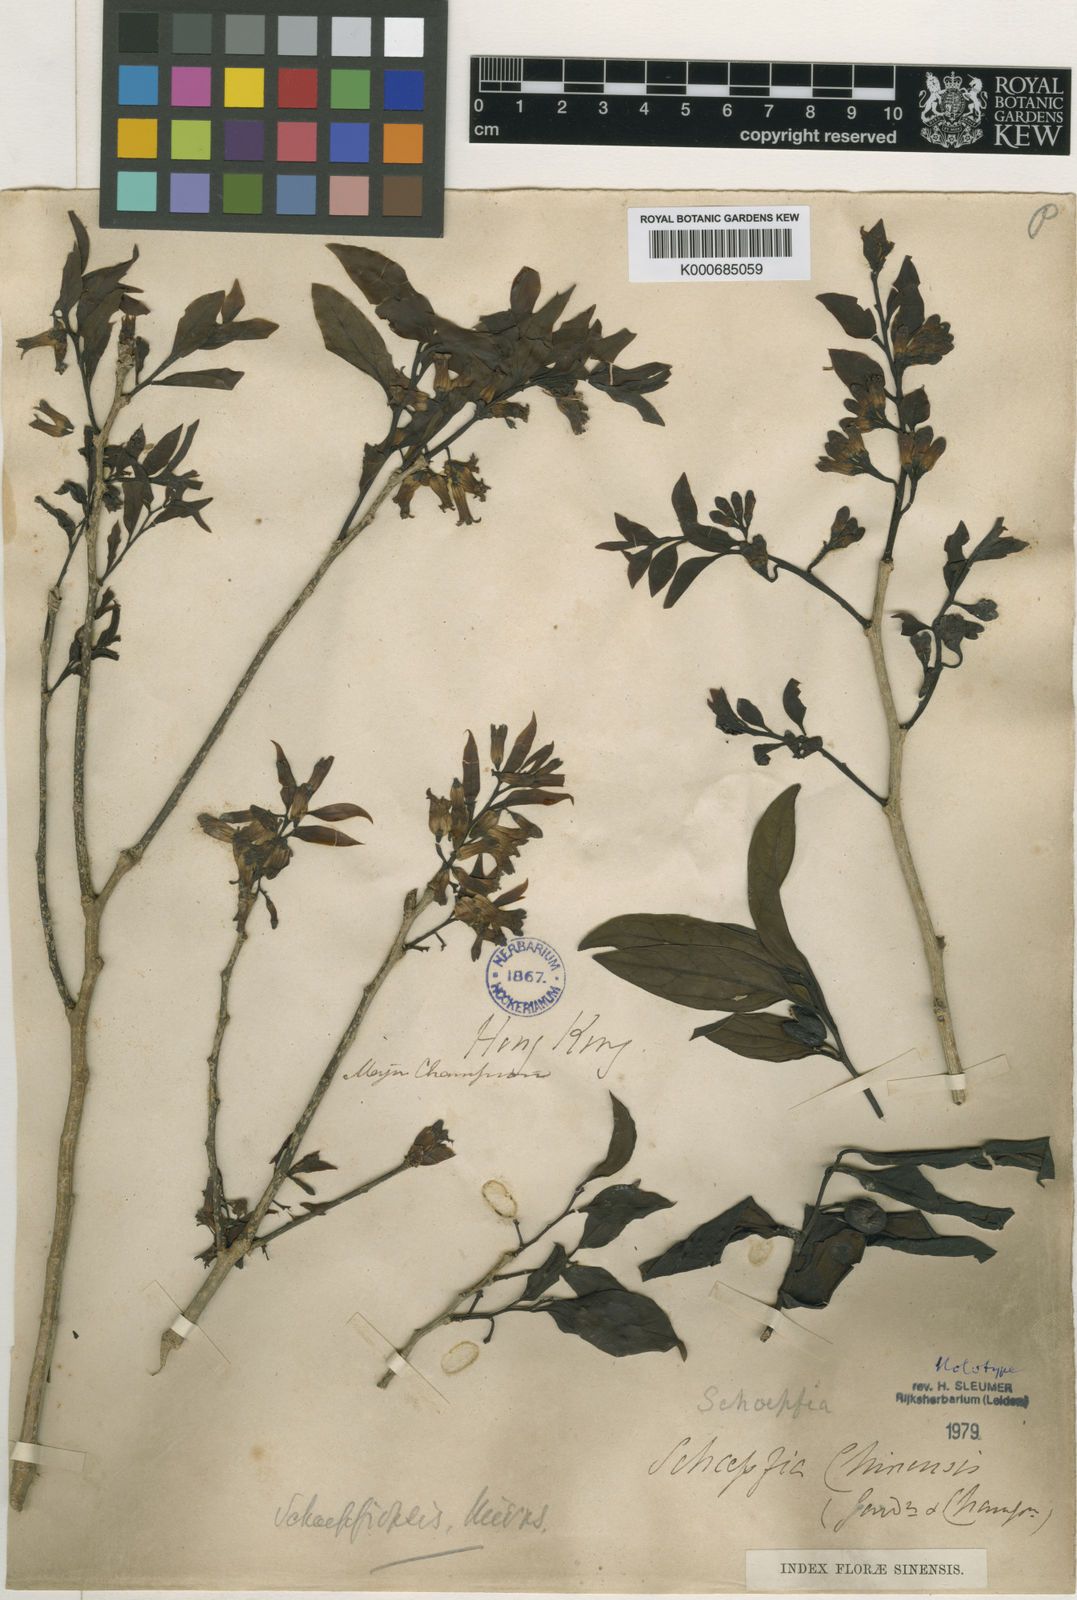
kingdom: Plantae
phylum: Tracheophyta
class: Magnoliopsida
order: Santalales
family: Schoepfiaceae
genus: Schoepfia
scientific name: Schoepfia chinensis
